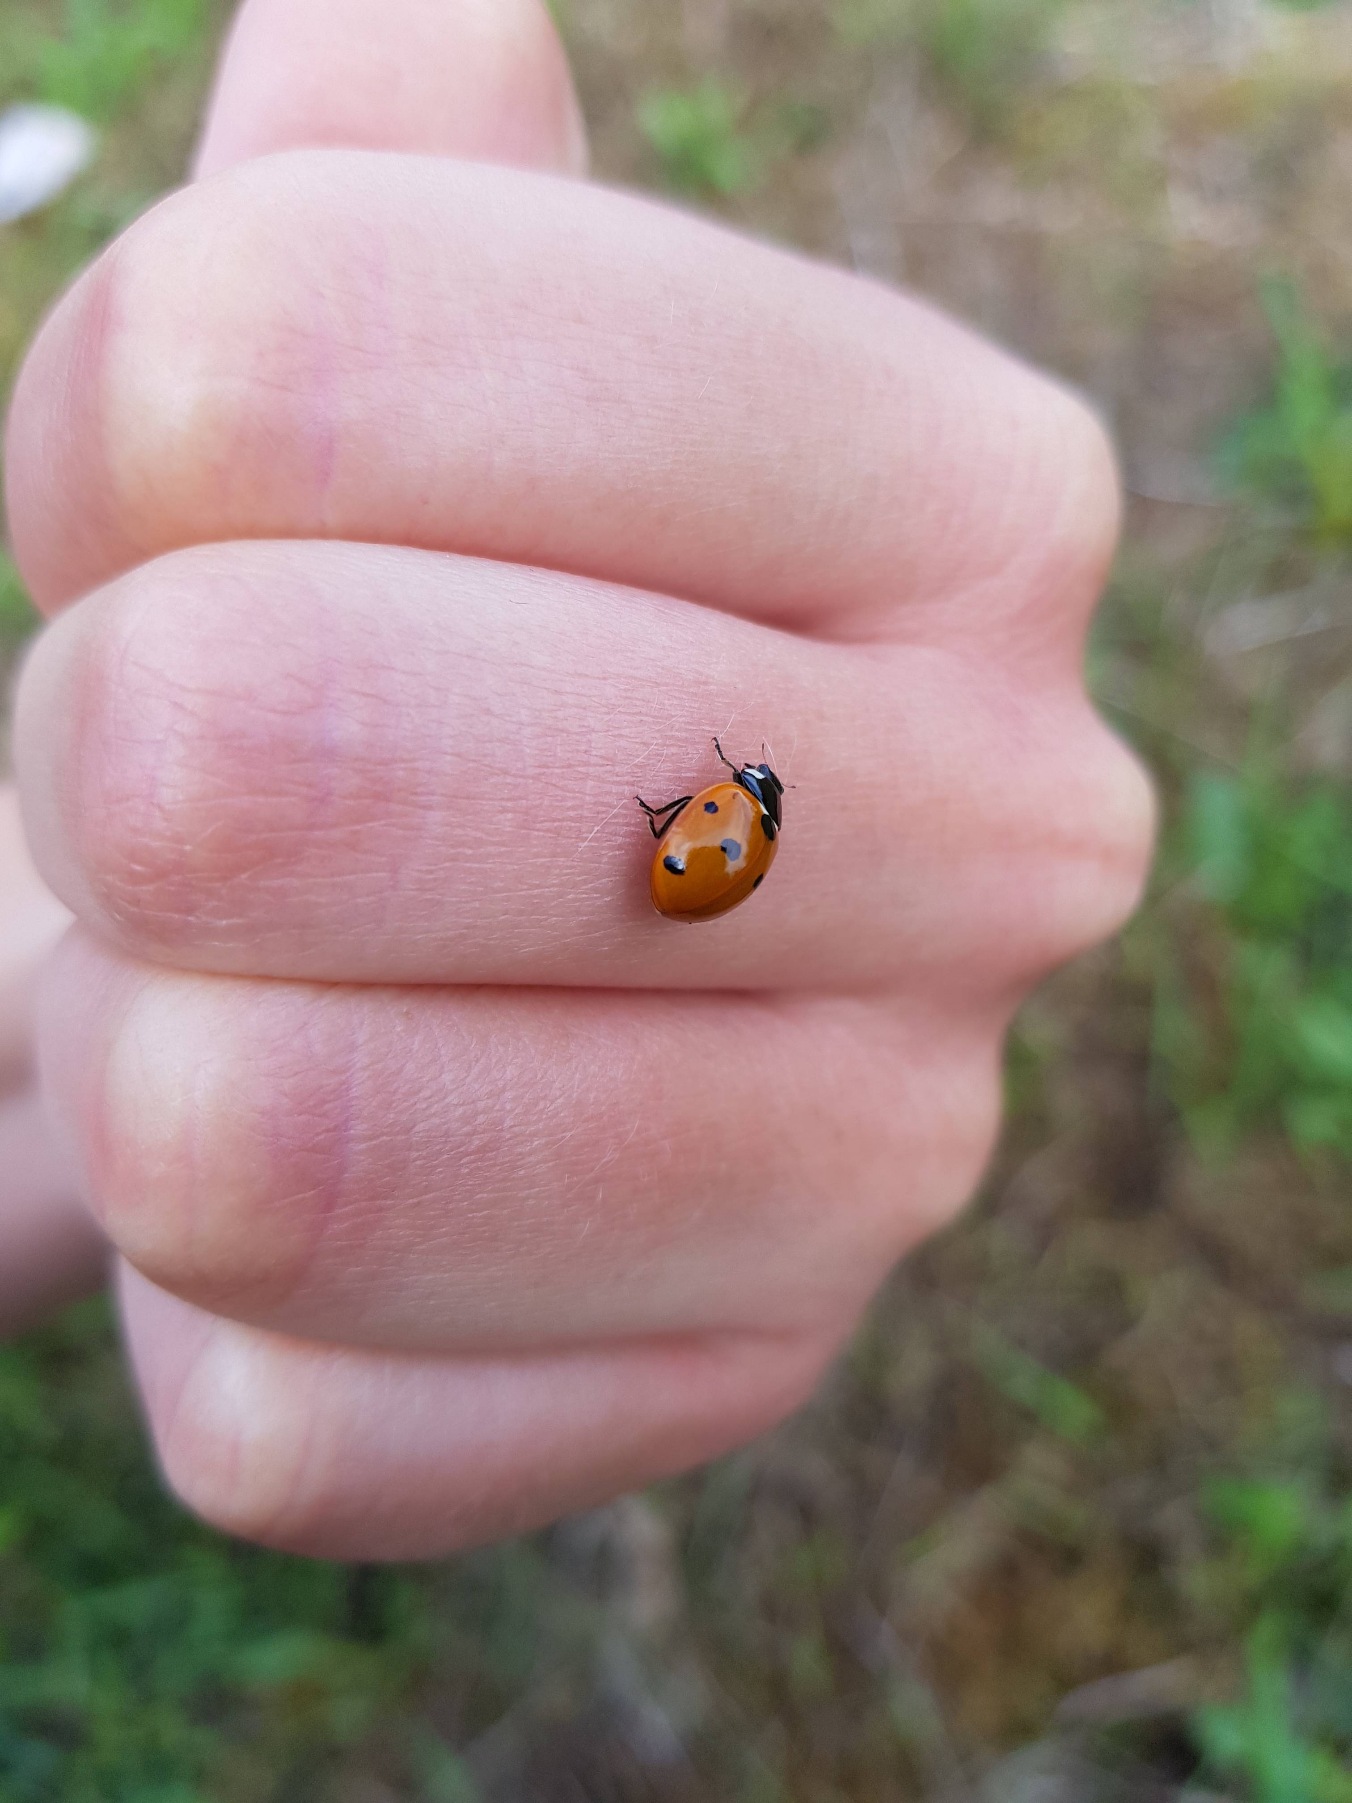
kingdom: Animalia
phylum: Arthropoda
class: Insecta
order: Coleoptera
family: Coccinellidae
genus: Coccinella
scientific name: Coccinella septempunctata
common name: Syvplettet mariehøne
